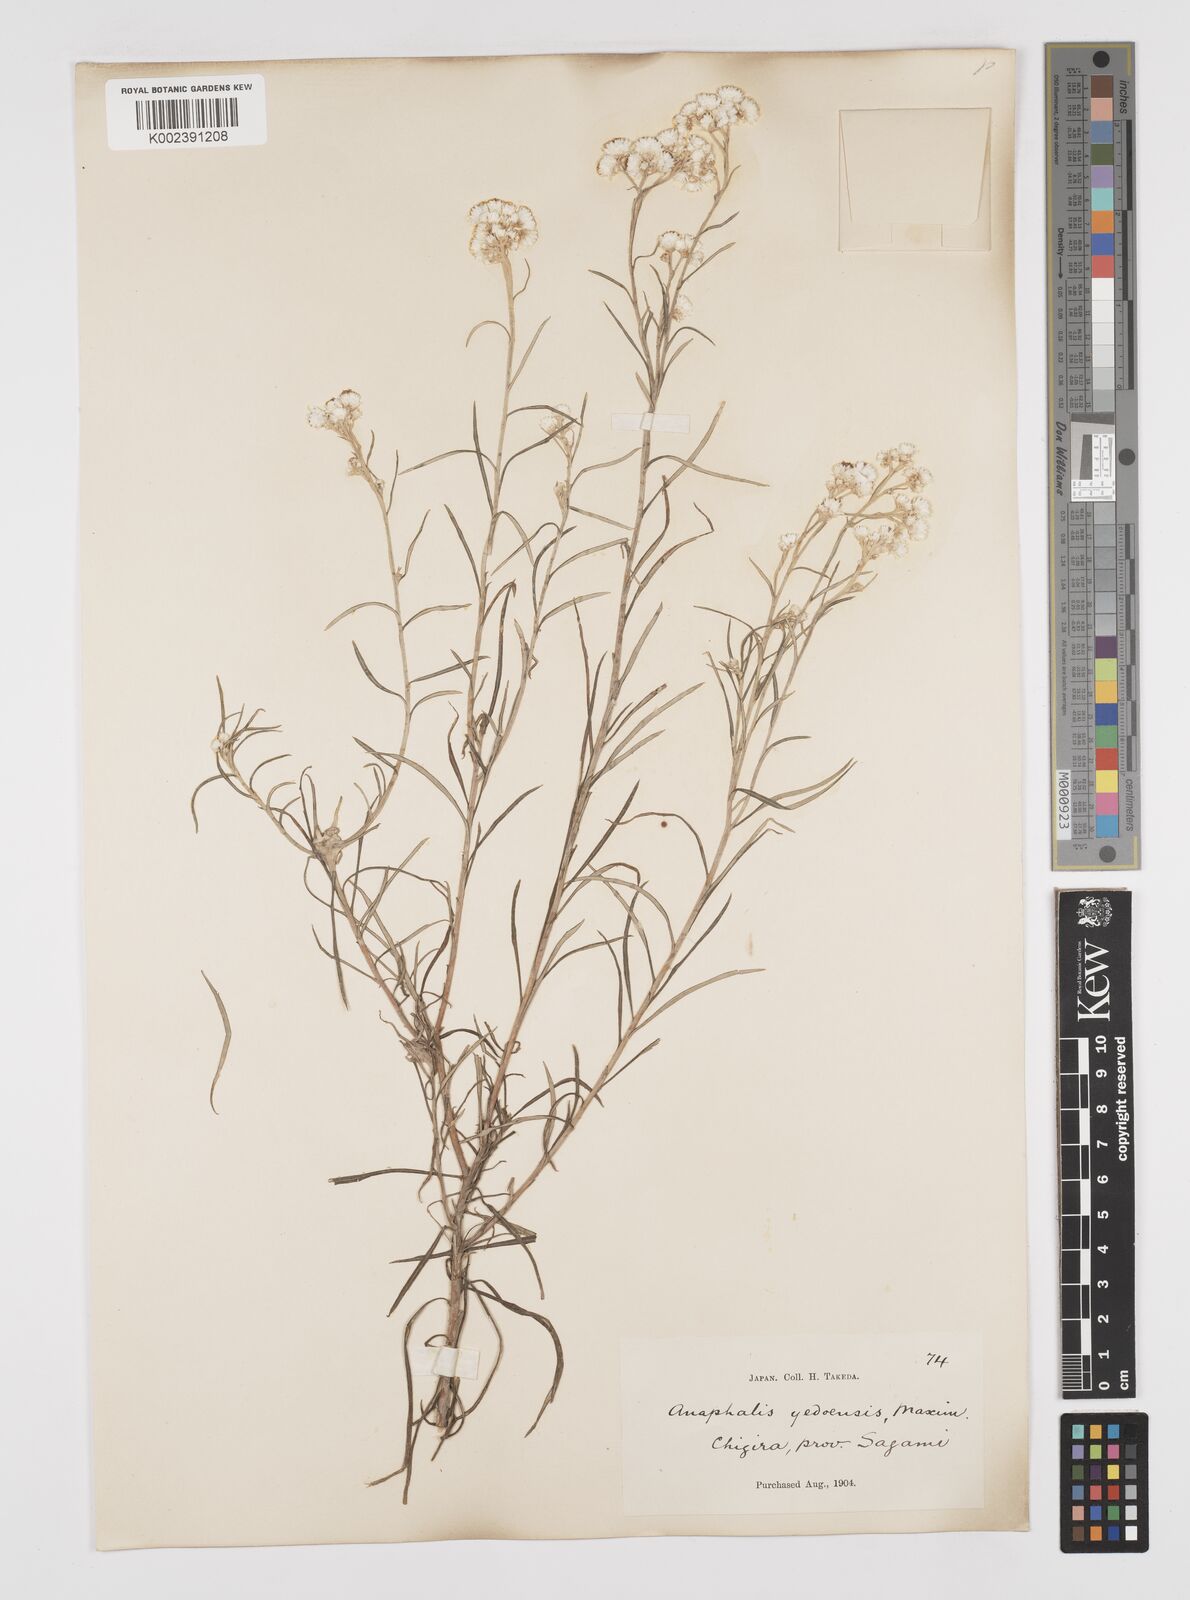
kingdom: Plantae
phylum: Tracheophyta
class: Magnoliopsida
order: Asterales
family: Asteraceae
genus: Anaphalis
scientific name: Anaphalis margaritacea
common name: Pearly everlasting
